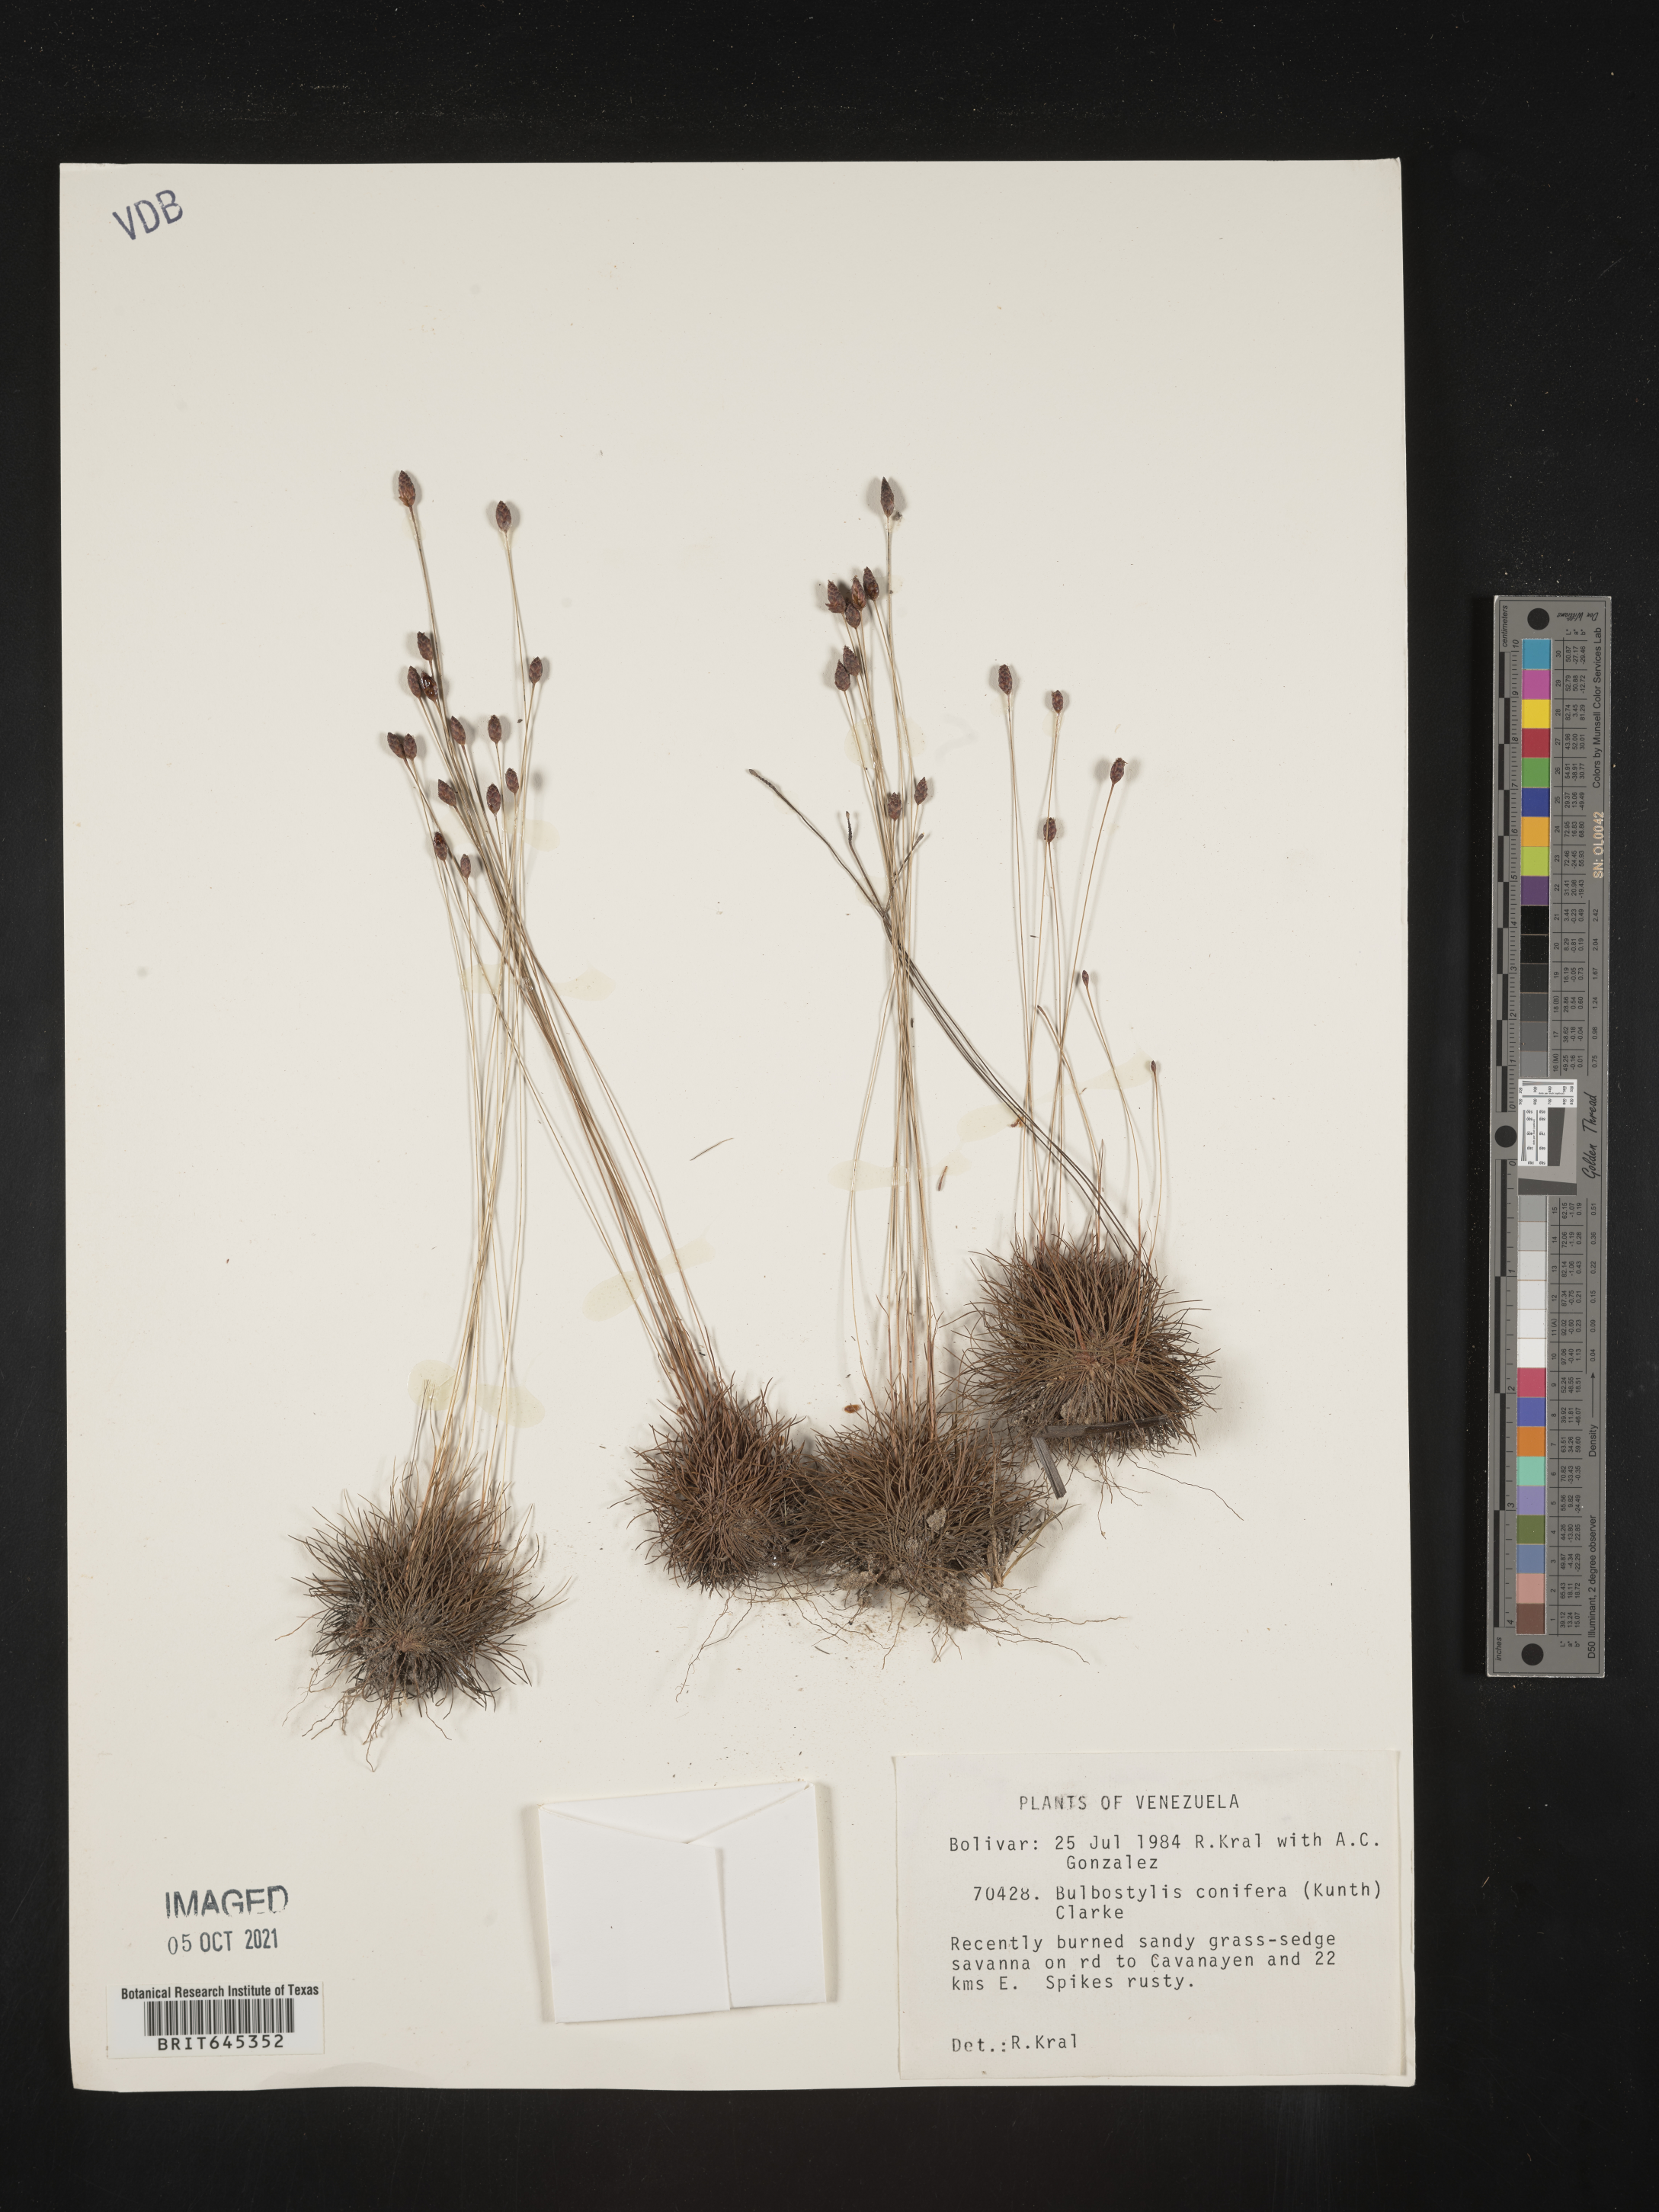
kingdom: Plantae
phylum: Tracheophyta
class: Liliopsida
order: Poales
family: Cyperaceae
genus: Bulbostylis
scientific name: Bulbostylis conifera
